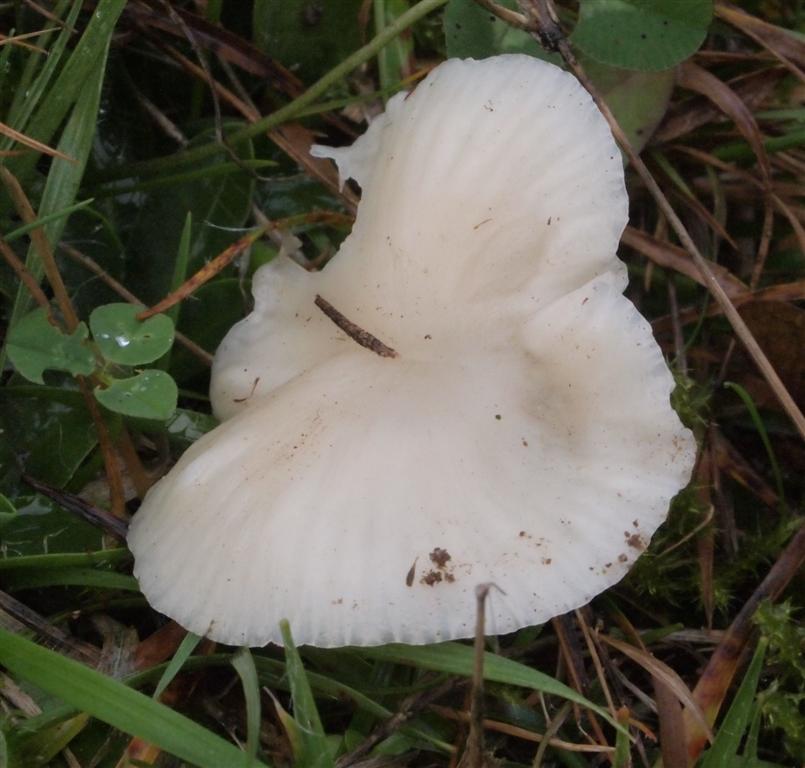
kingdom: Fungi
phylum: Basidiomycota
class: Agaricomycetes
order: Agaricales
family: Hygrophoraceae
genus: Cuphophyllus
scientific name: Cuphophyllus virgineus
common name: snehvid vokshat
